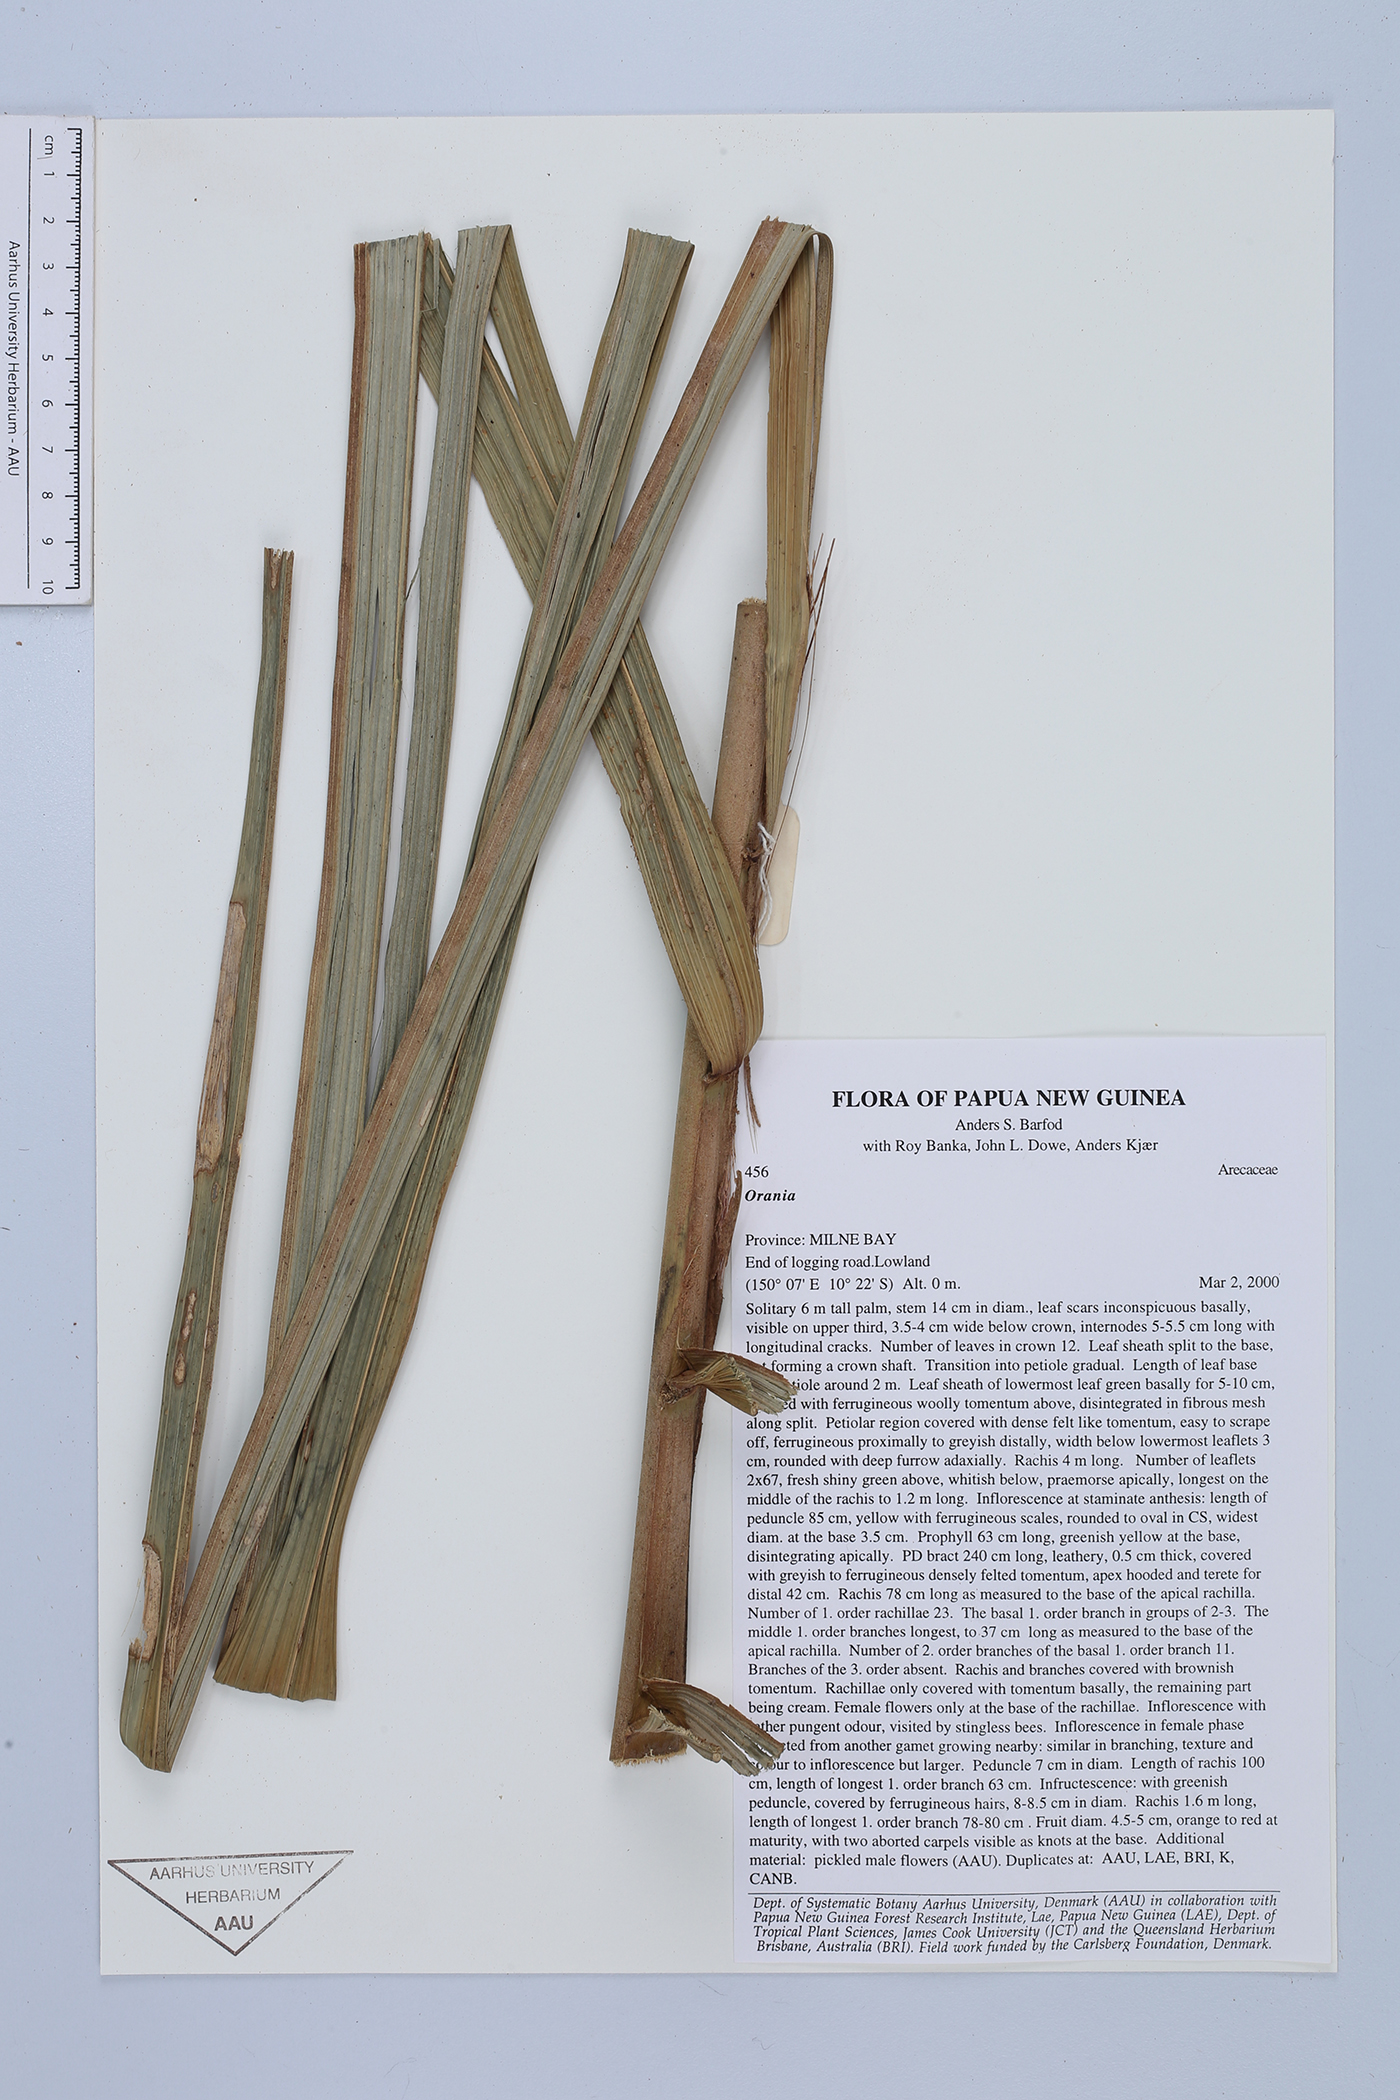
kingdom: Plantae
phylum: Tracheophyta
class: Liliopsida
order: Arecales
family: Arecaceae
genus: Orania
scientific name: Orania
